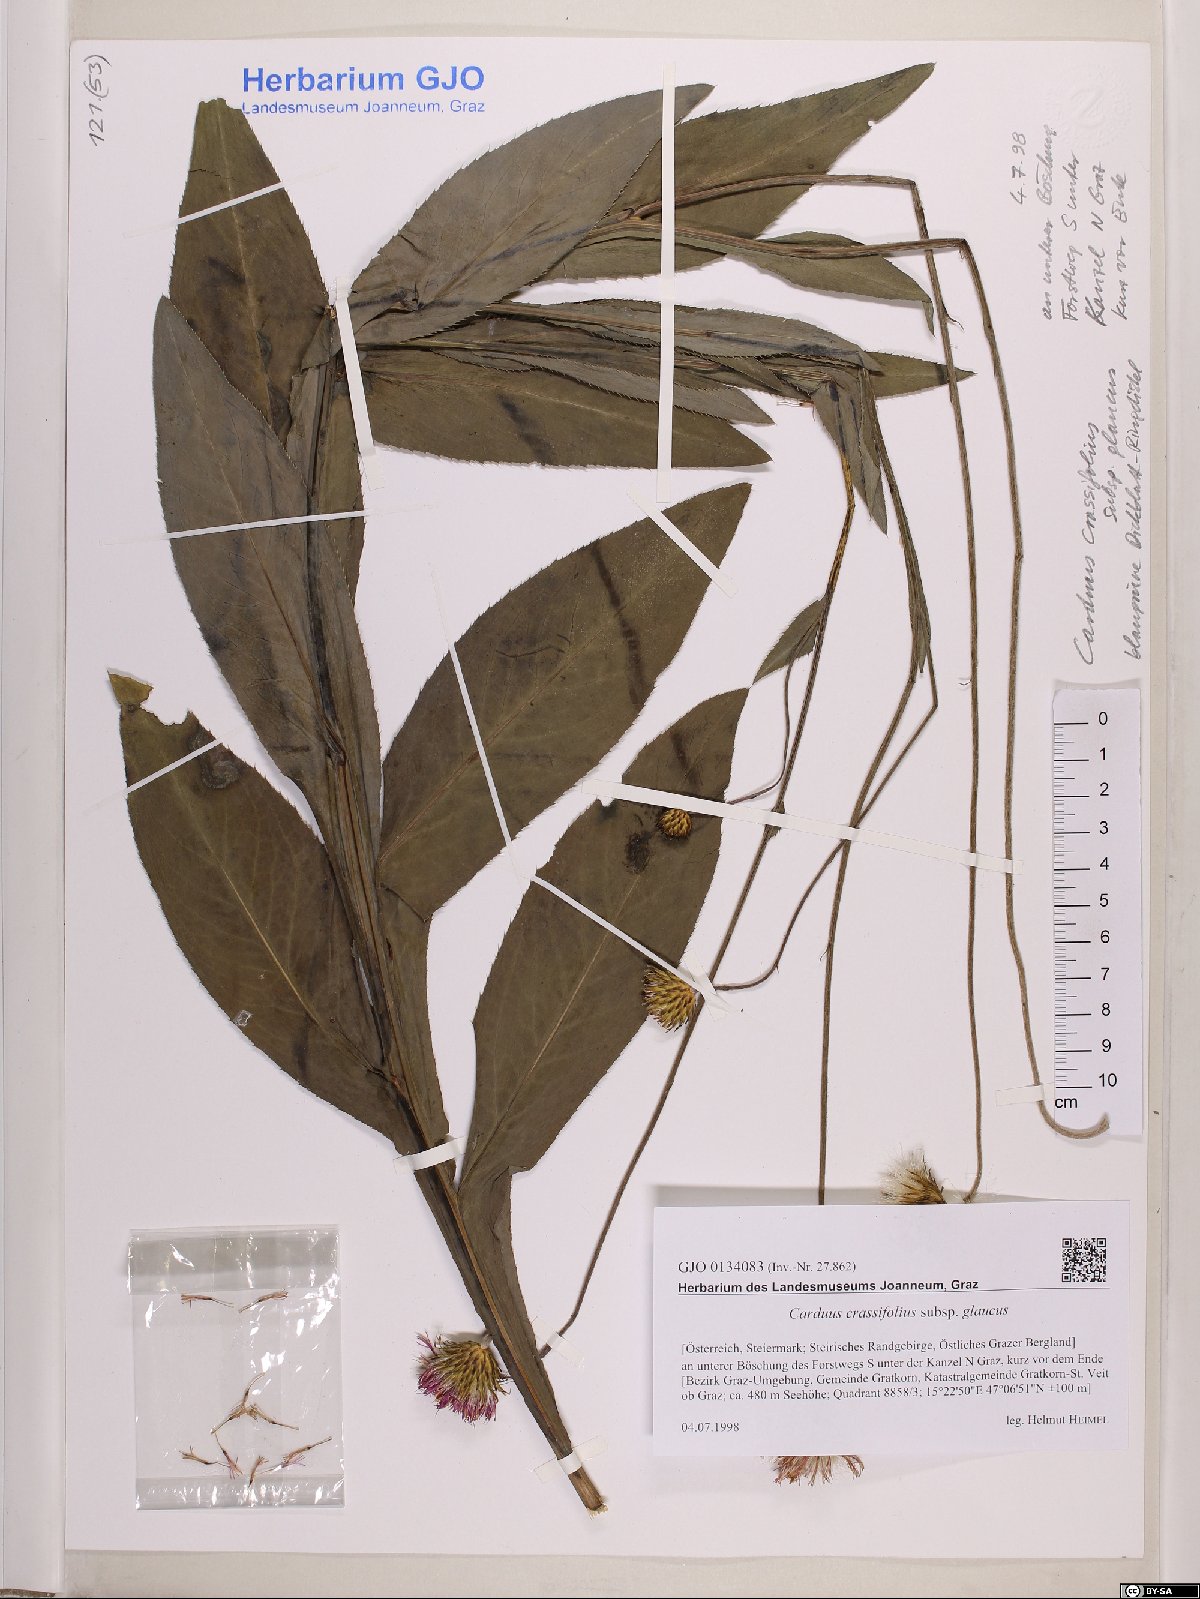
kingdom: Plantae
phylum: Tracheophyta
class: Magnoliopsida
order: Asterales
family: Asteraceae
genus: Carduus
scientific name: Carduus defloratus
